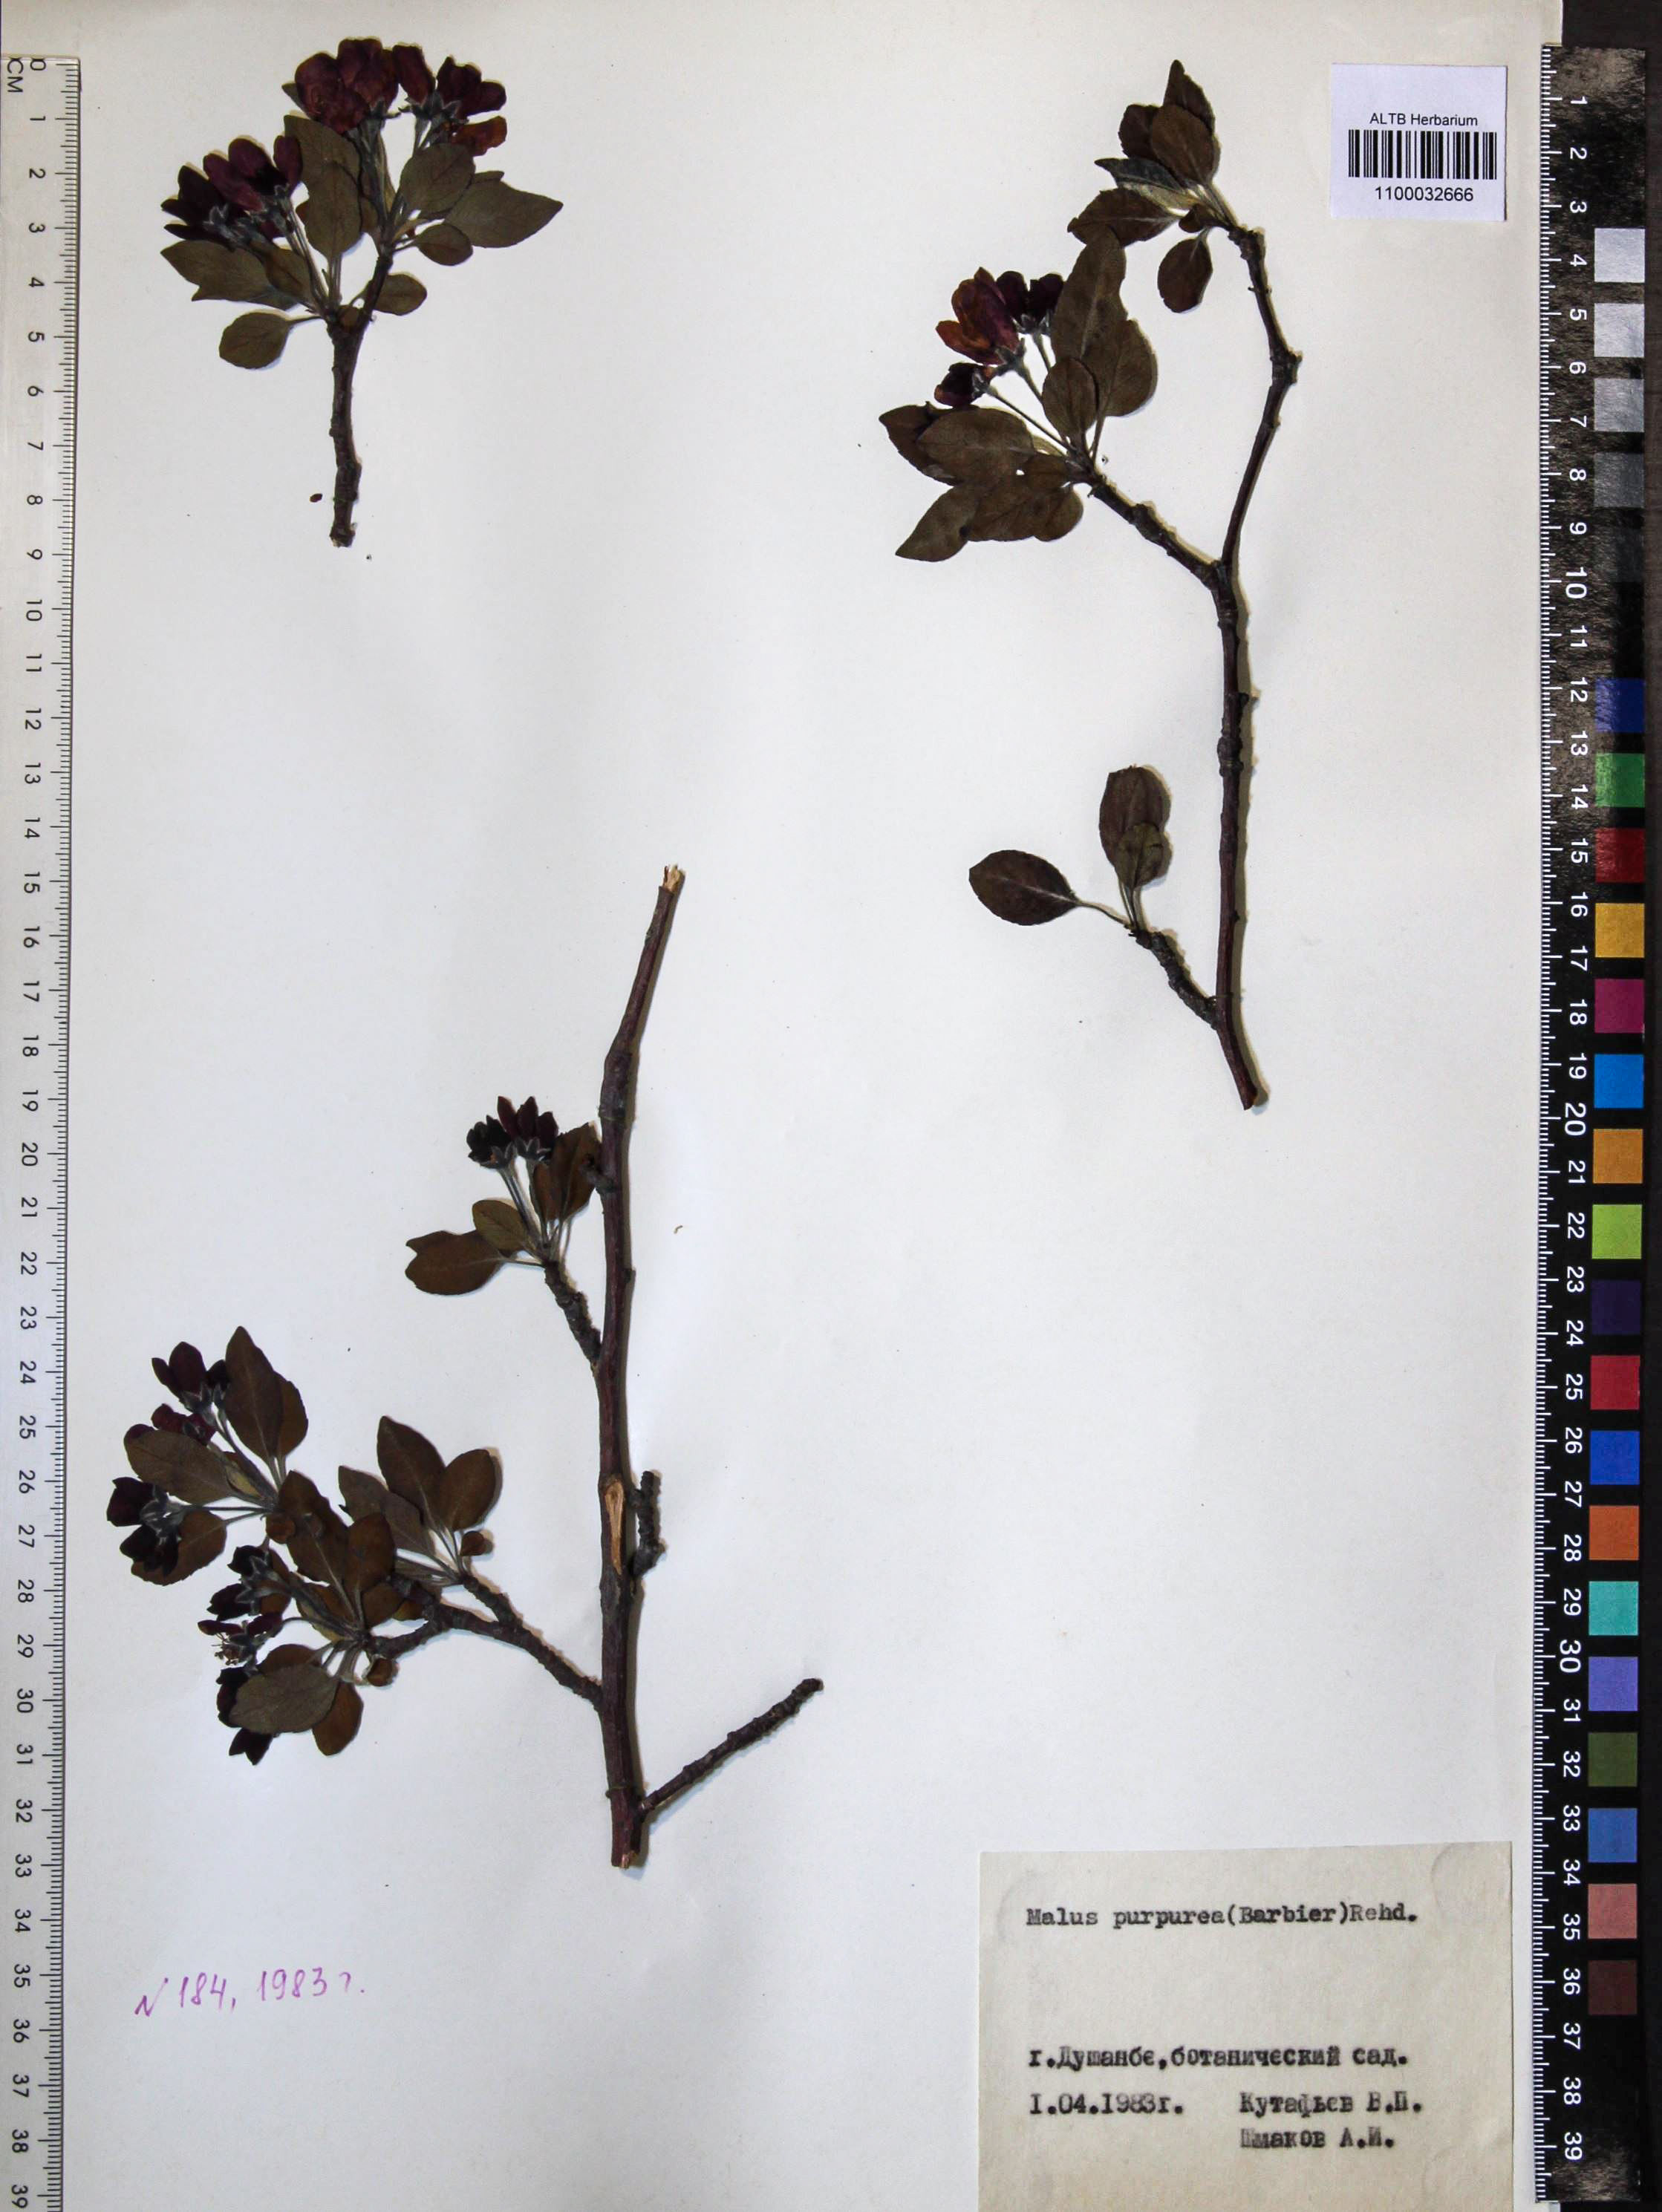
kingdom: Plantae
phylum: Tracheophyta
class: Magnoliopsida
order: Rosales
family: Rosaceae
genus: Malus
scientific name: Malus purpurea
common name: Purple crab apple
